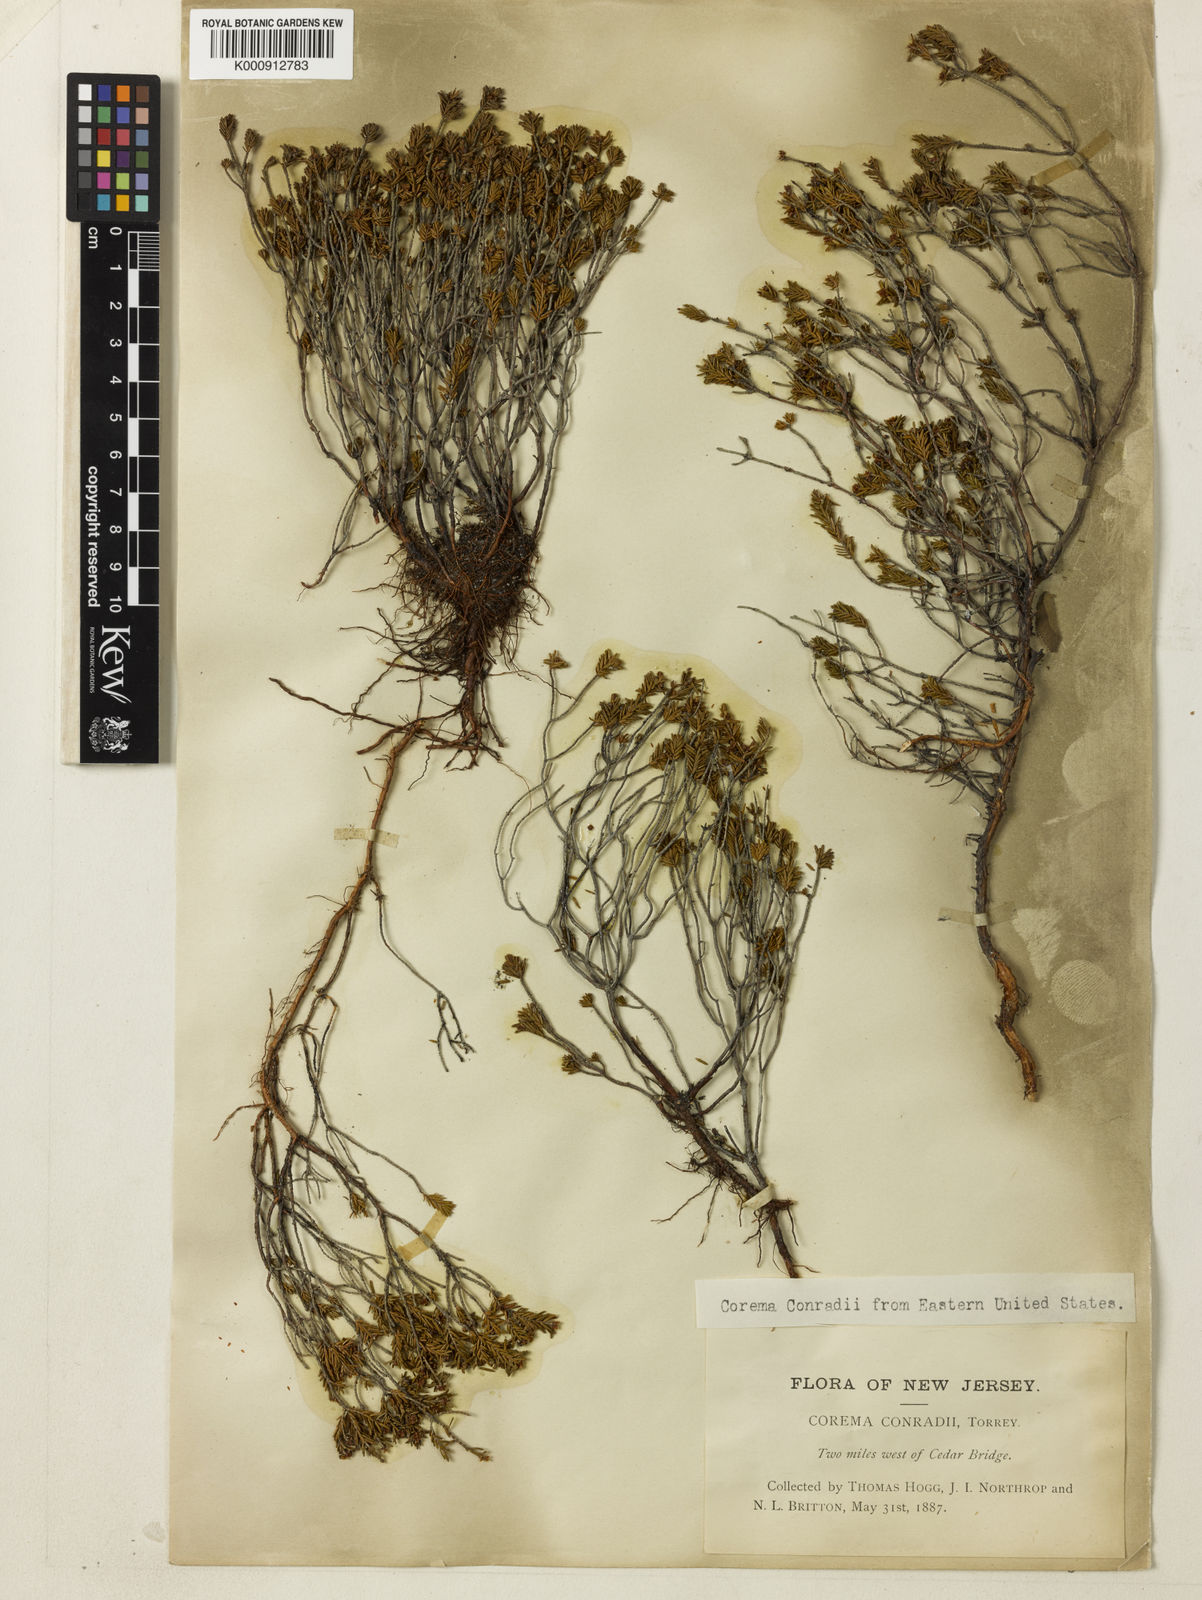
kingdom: Plantae
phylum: Tracheophyta
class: Magnoliopsida
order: Ericales
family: Ericaceae
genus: Corema
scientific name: Corema
